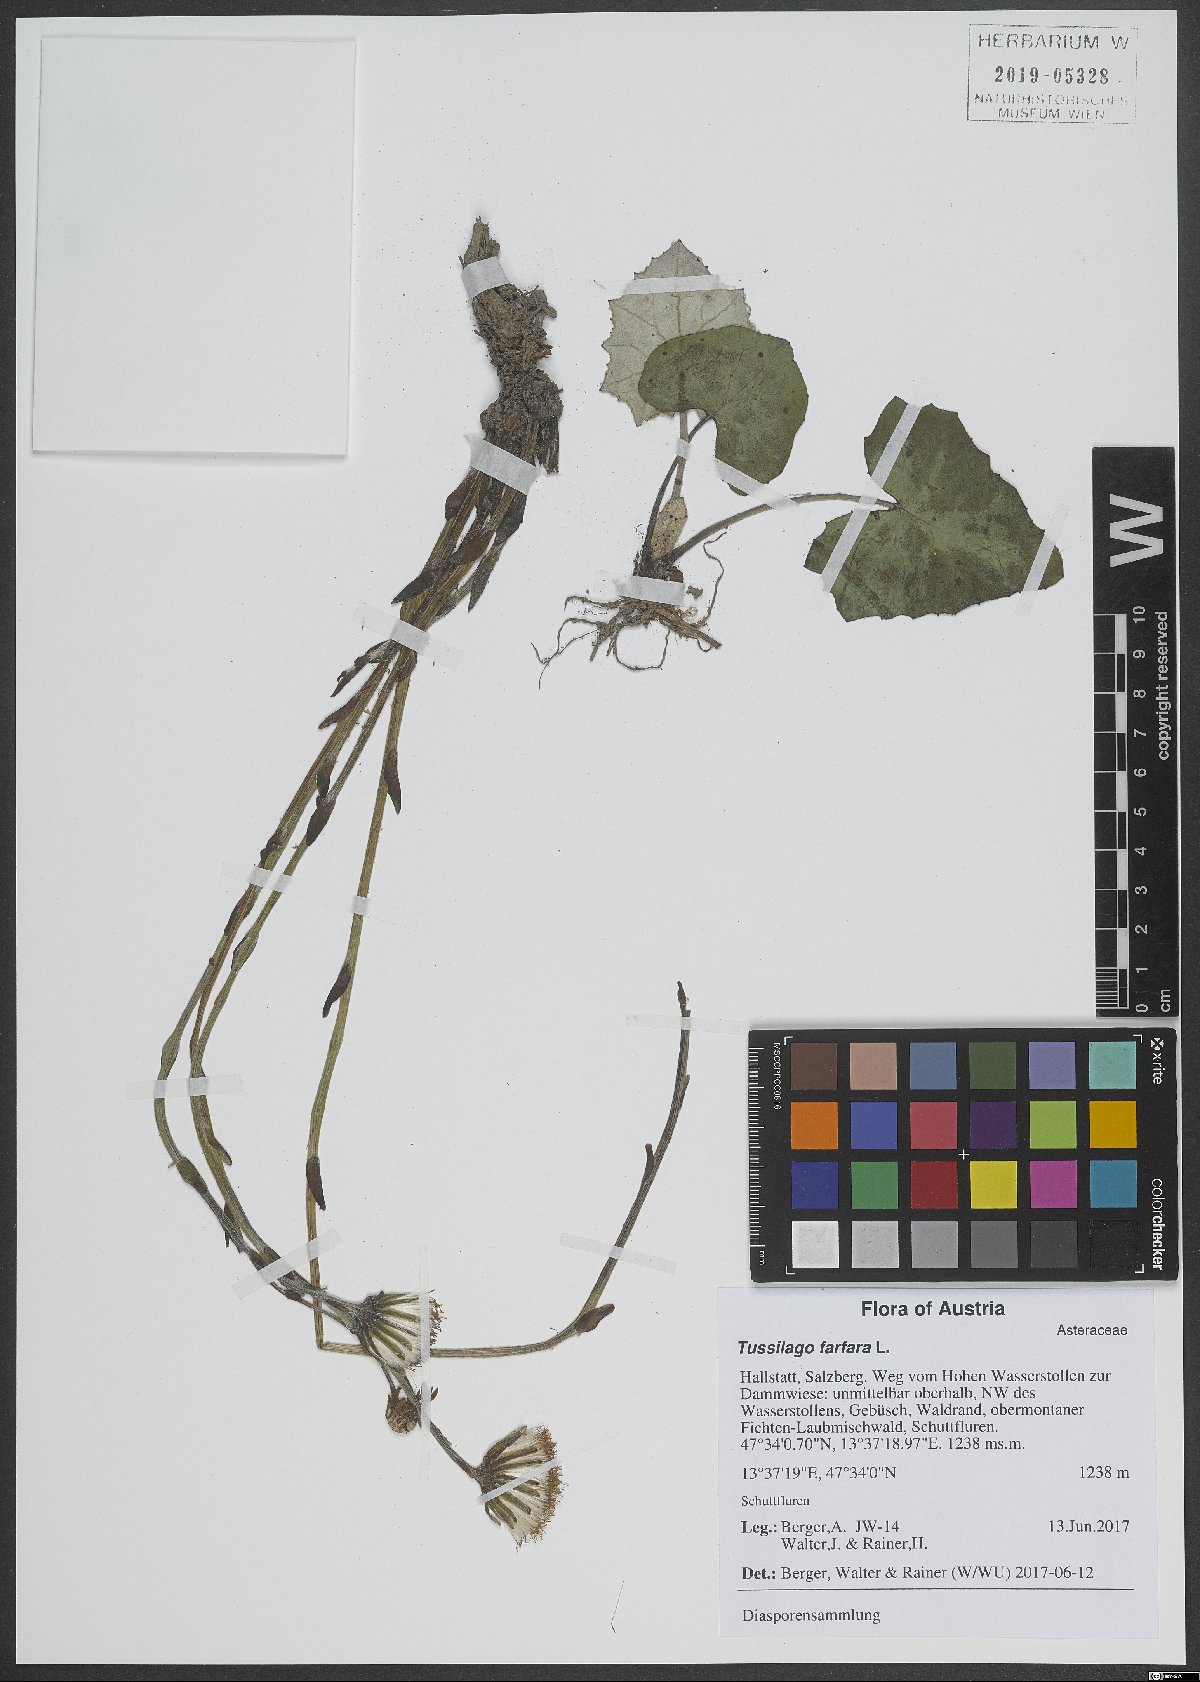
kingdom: Plantae
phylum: Tracheophyta
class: Magnoliopsida
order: Asterales
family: Asteraceae
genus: Tussilago
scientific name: Tussilago farfara
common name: Coltsfoot
